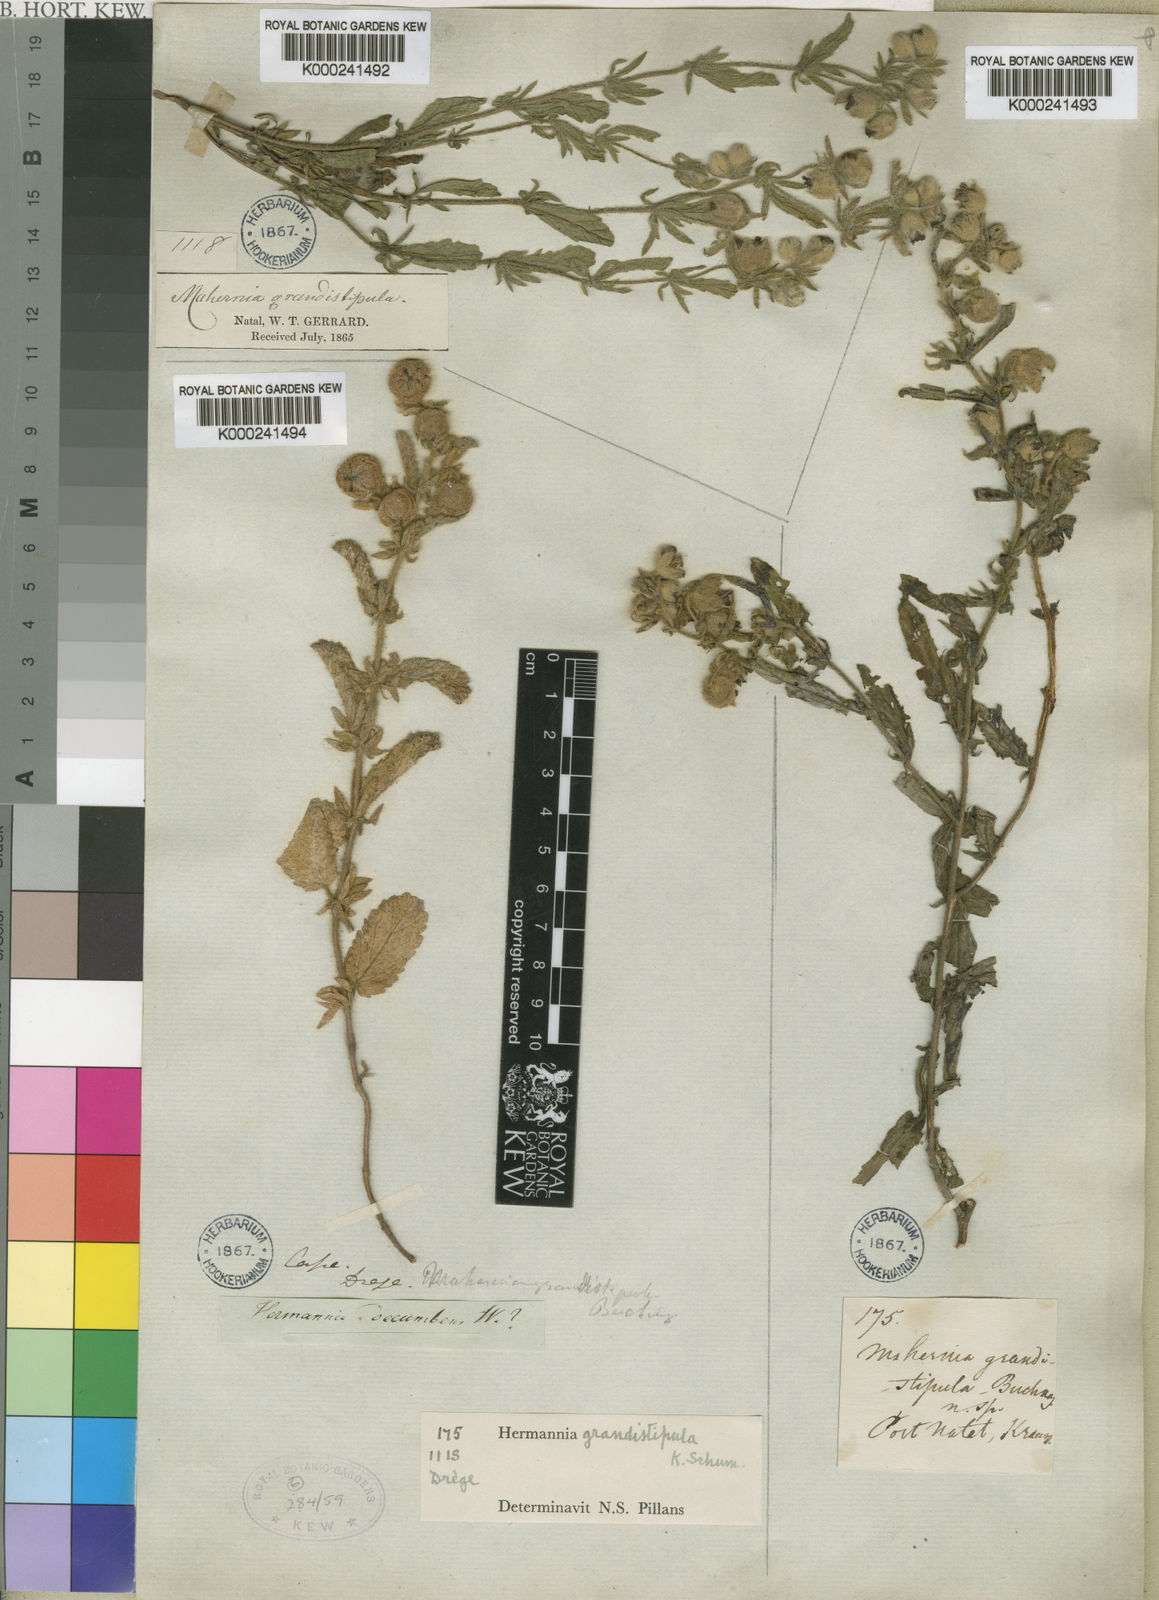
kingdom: Plantae
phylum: Tracheophyta
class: Magnoliopsida
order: Malvales
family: Malvaceae
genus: Hermannia
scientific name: Hermannia grandistipula
